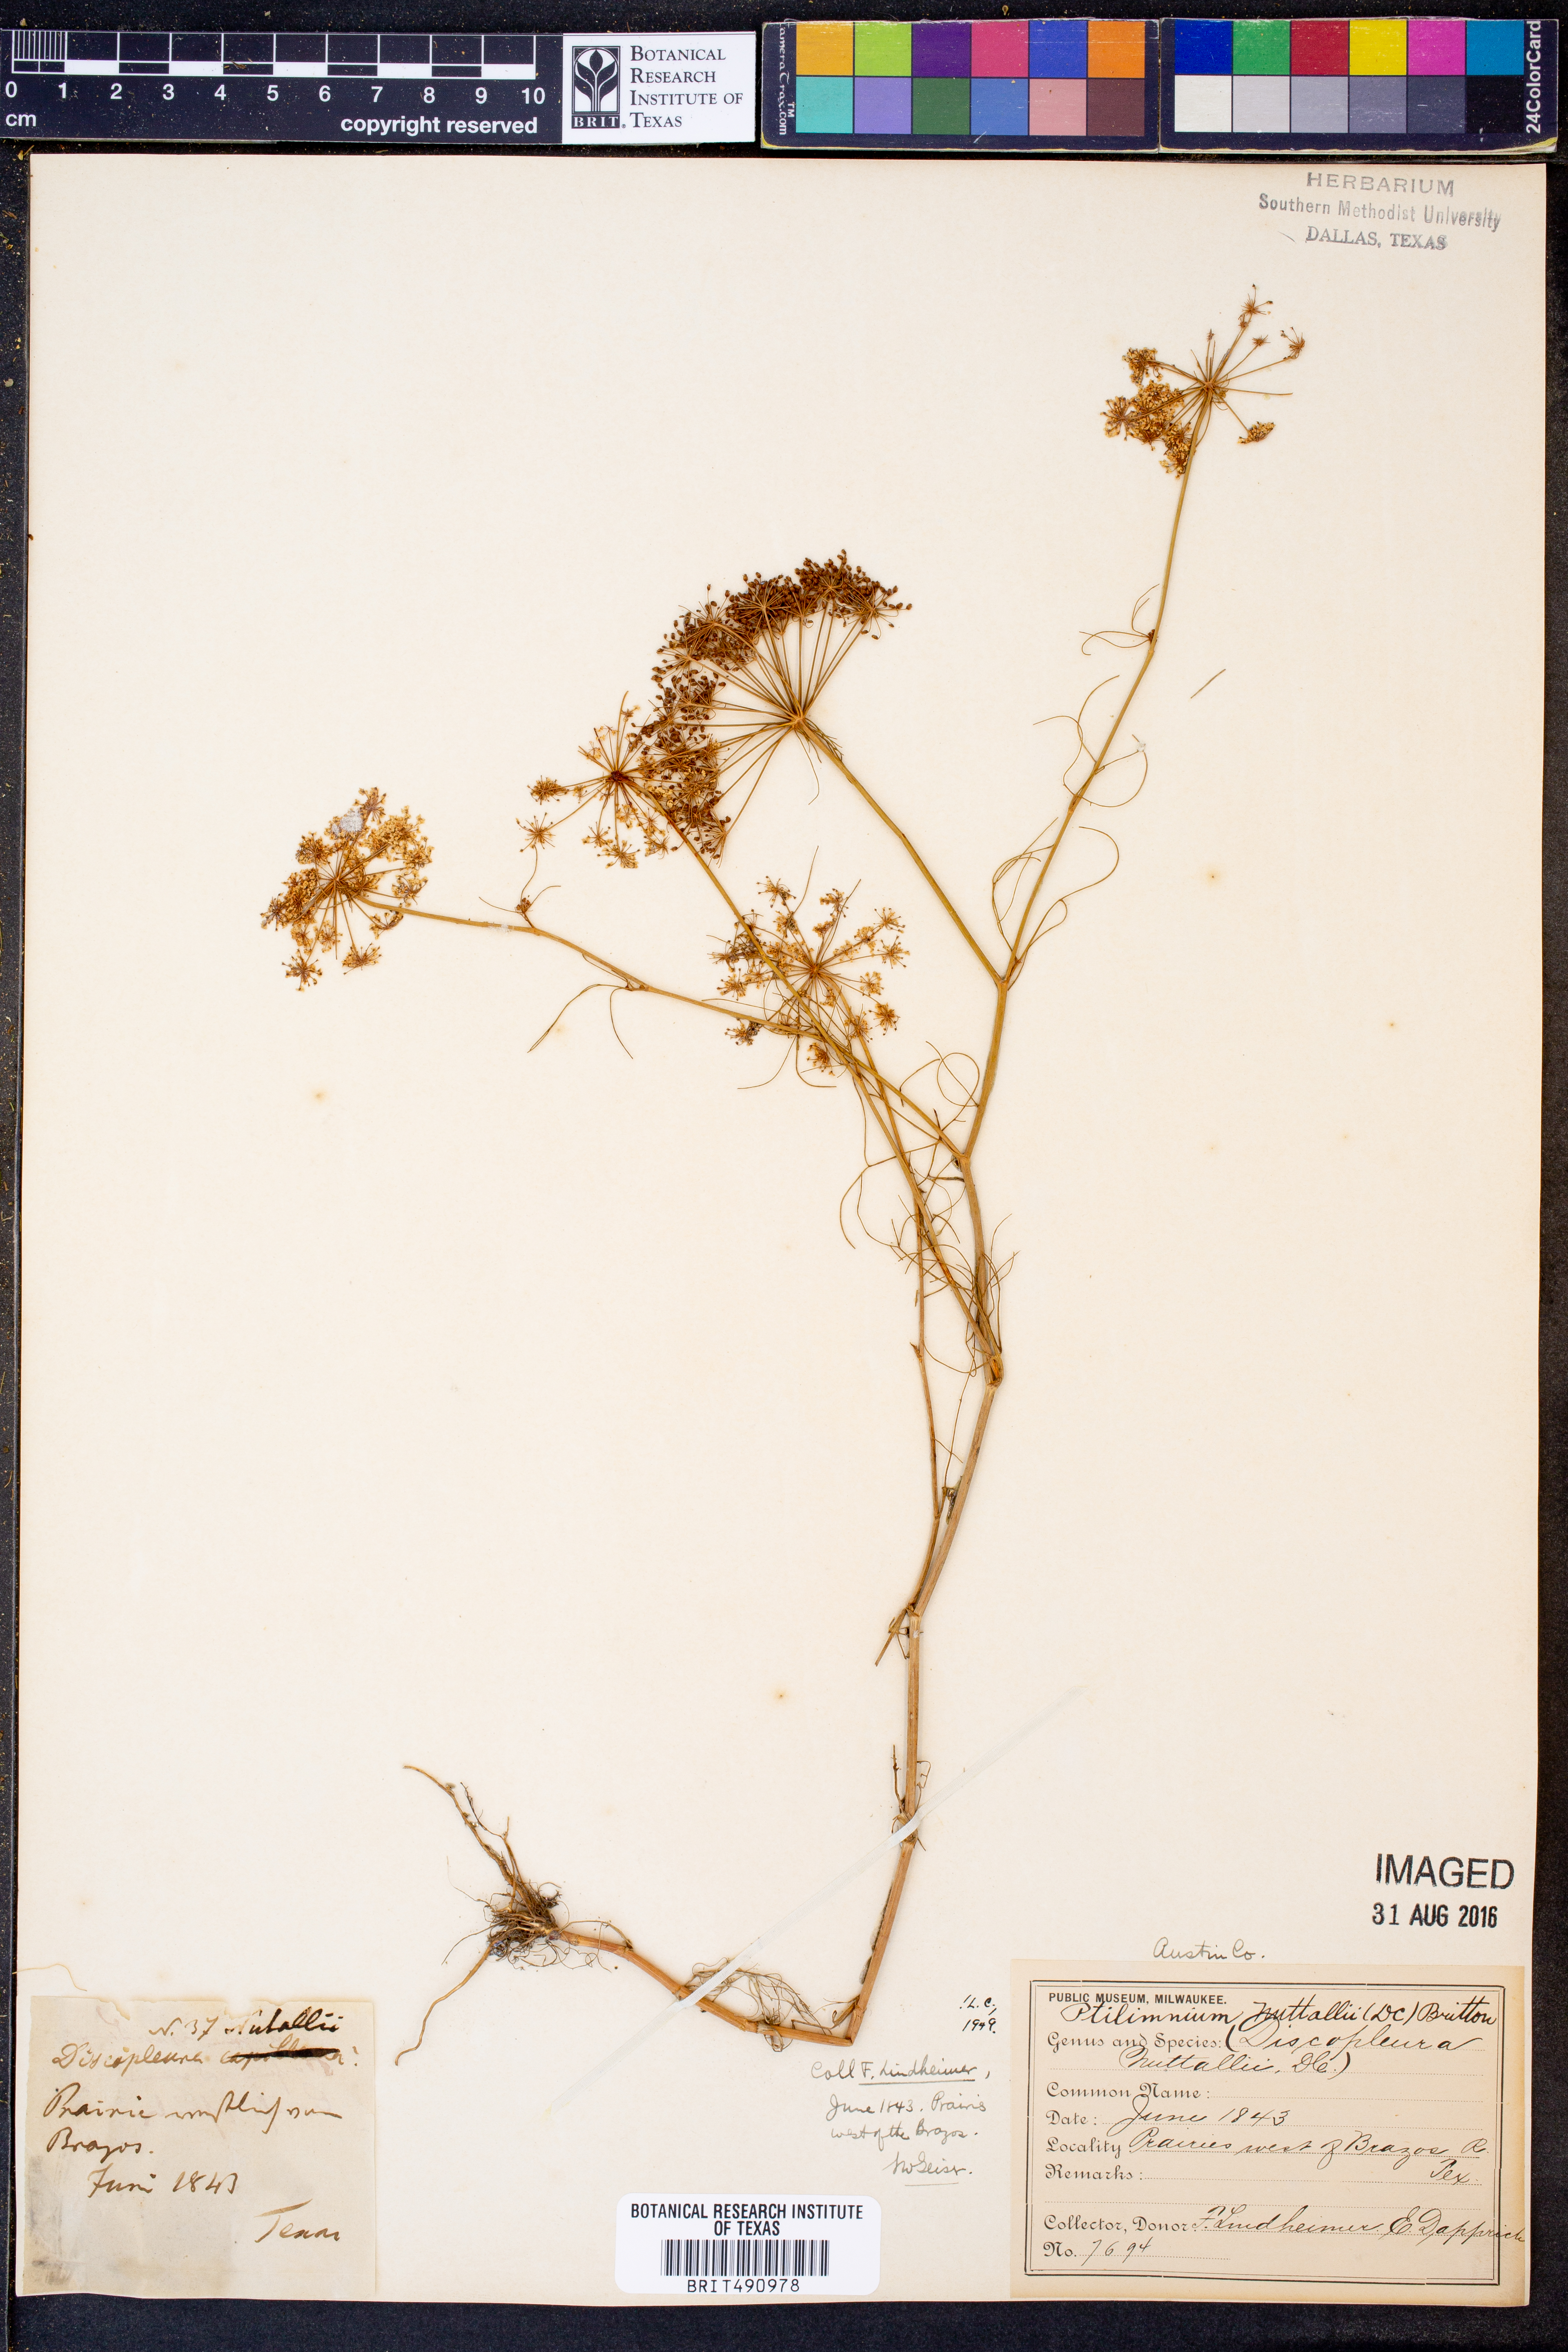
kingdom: Plantae
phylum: Tracheophyta
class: Magnoliopsida
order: Apiales
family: Apiaceae
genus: Ptilimnium
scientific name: Ptilimnium nuttallii
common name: Ozark bishop's-weed
